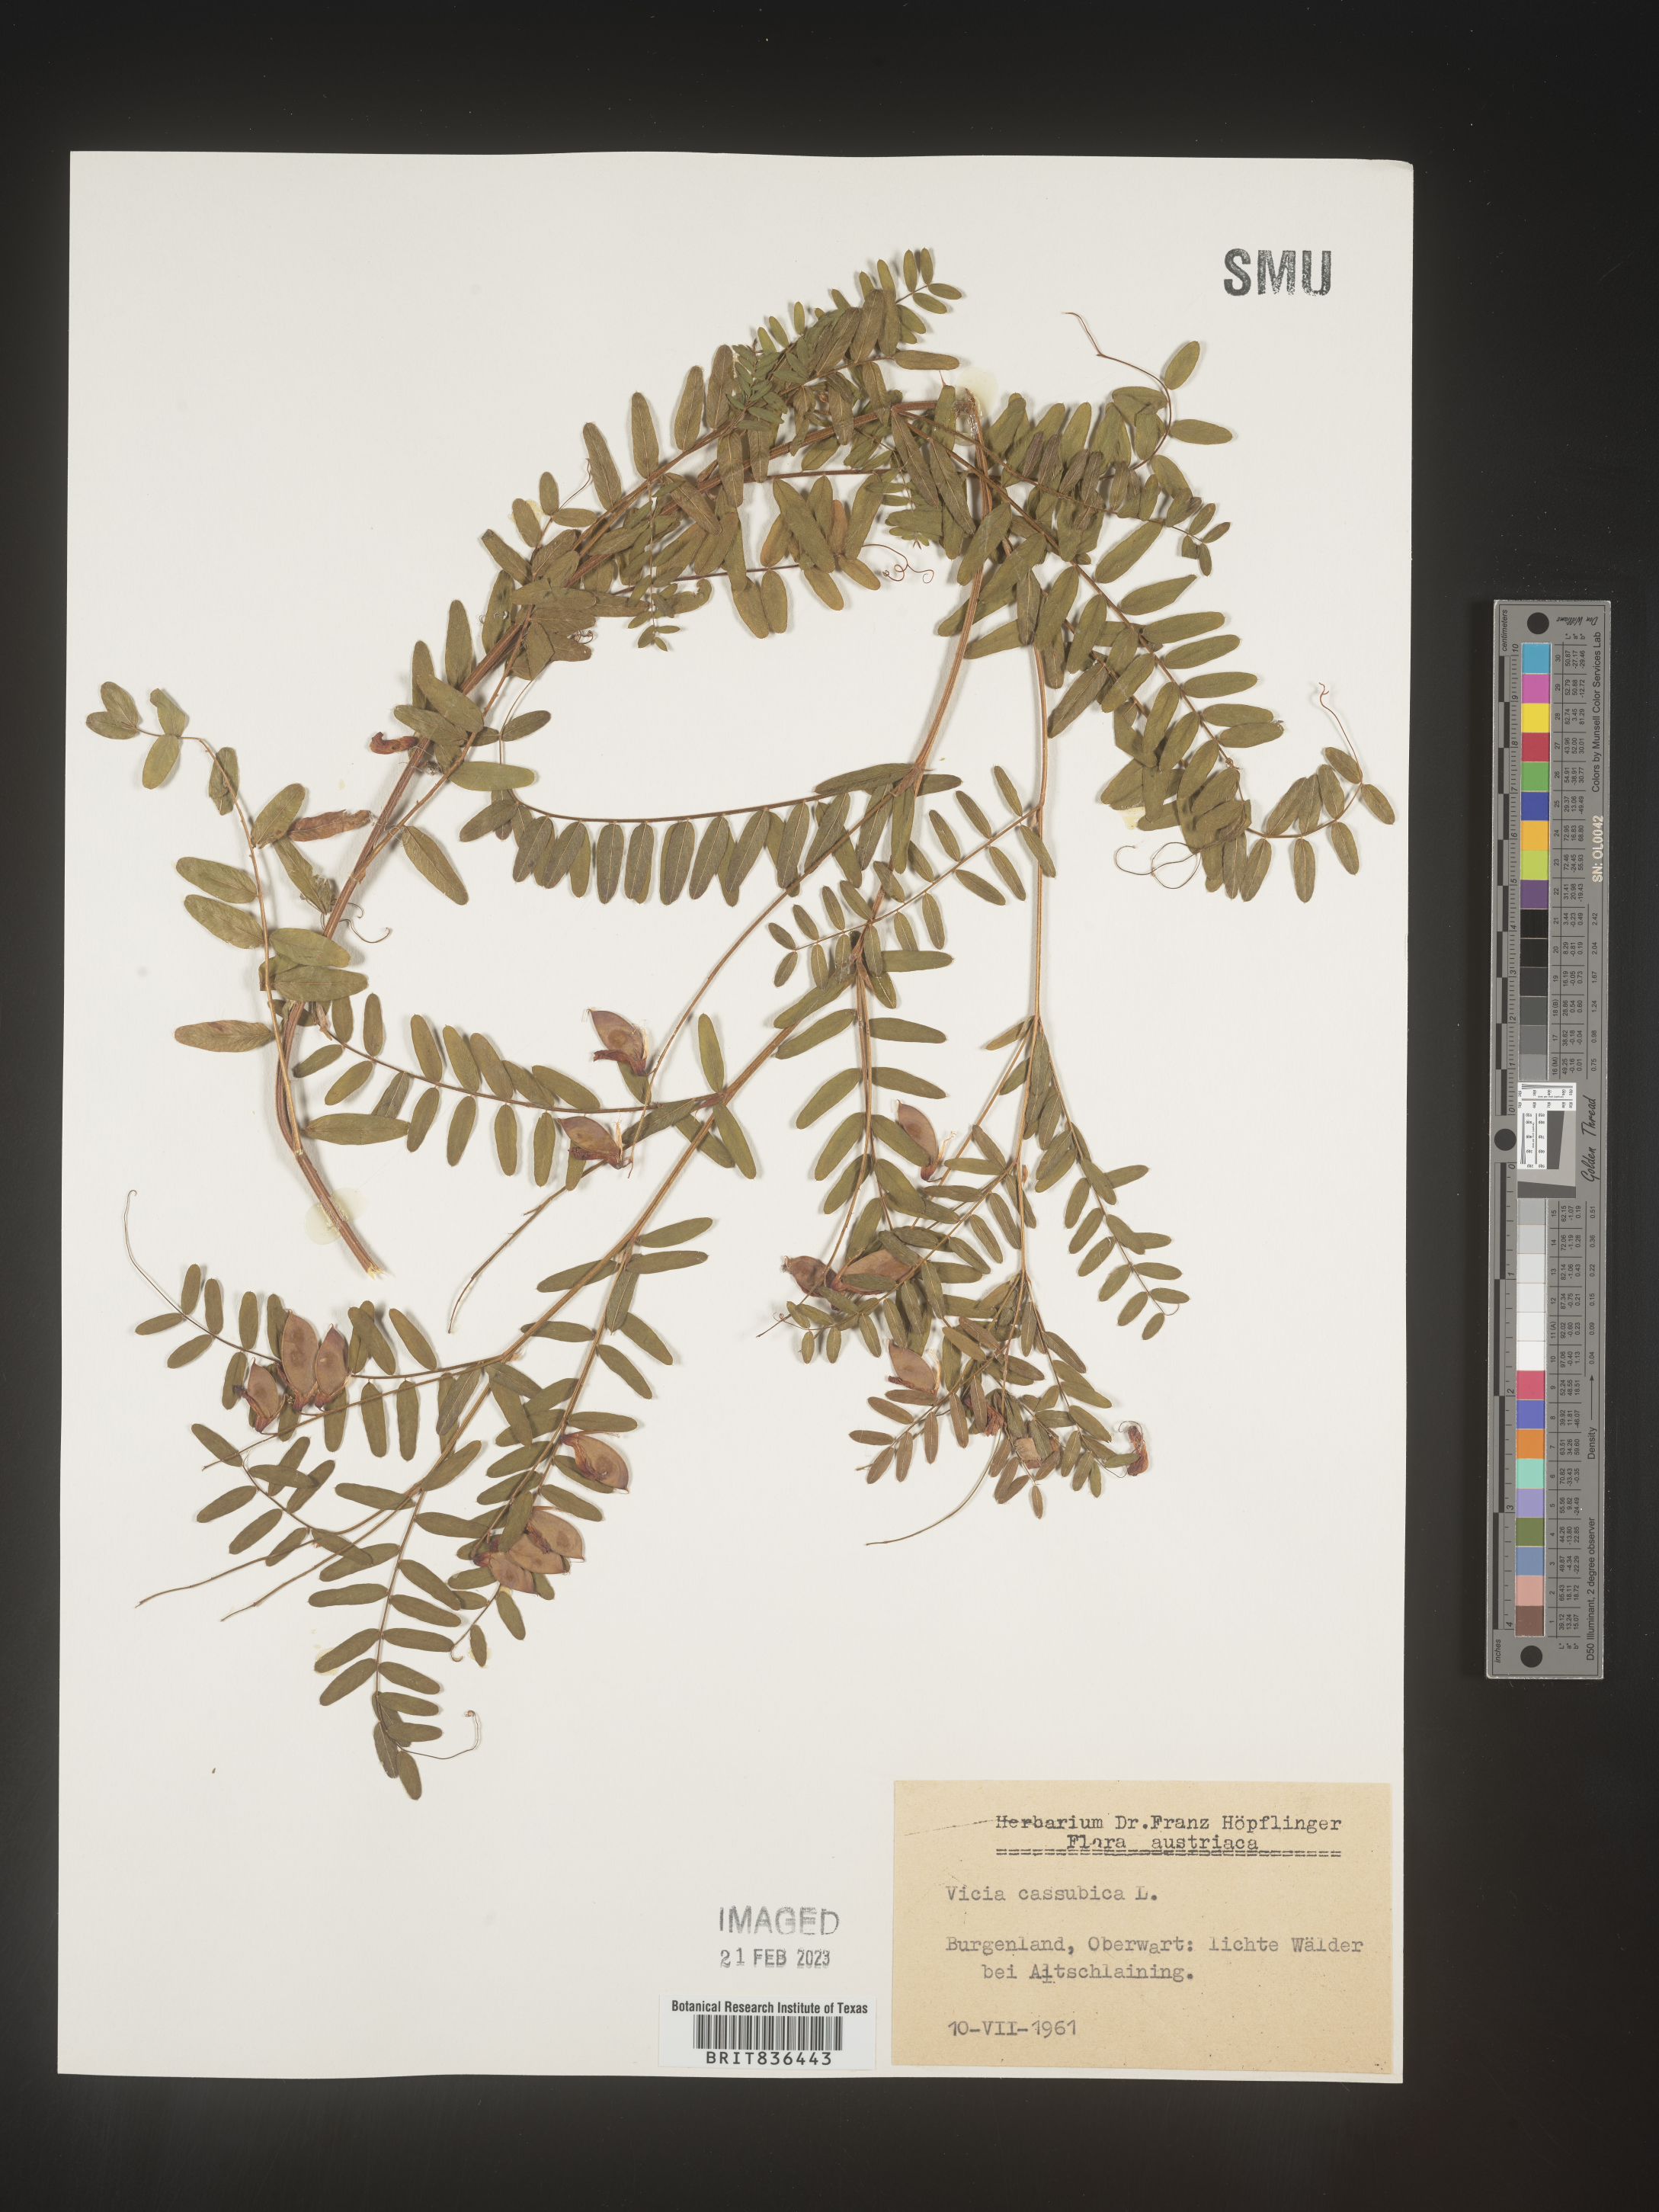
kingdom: Plantae
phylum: Tracheophyta
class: Magnoliopsida
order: Fabales
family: Fabaceae
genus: Vicia
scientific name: Vicia
